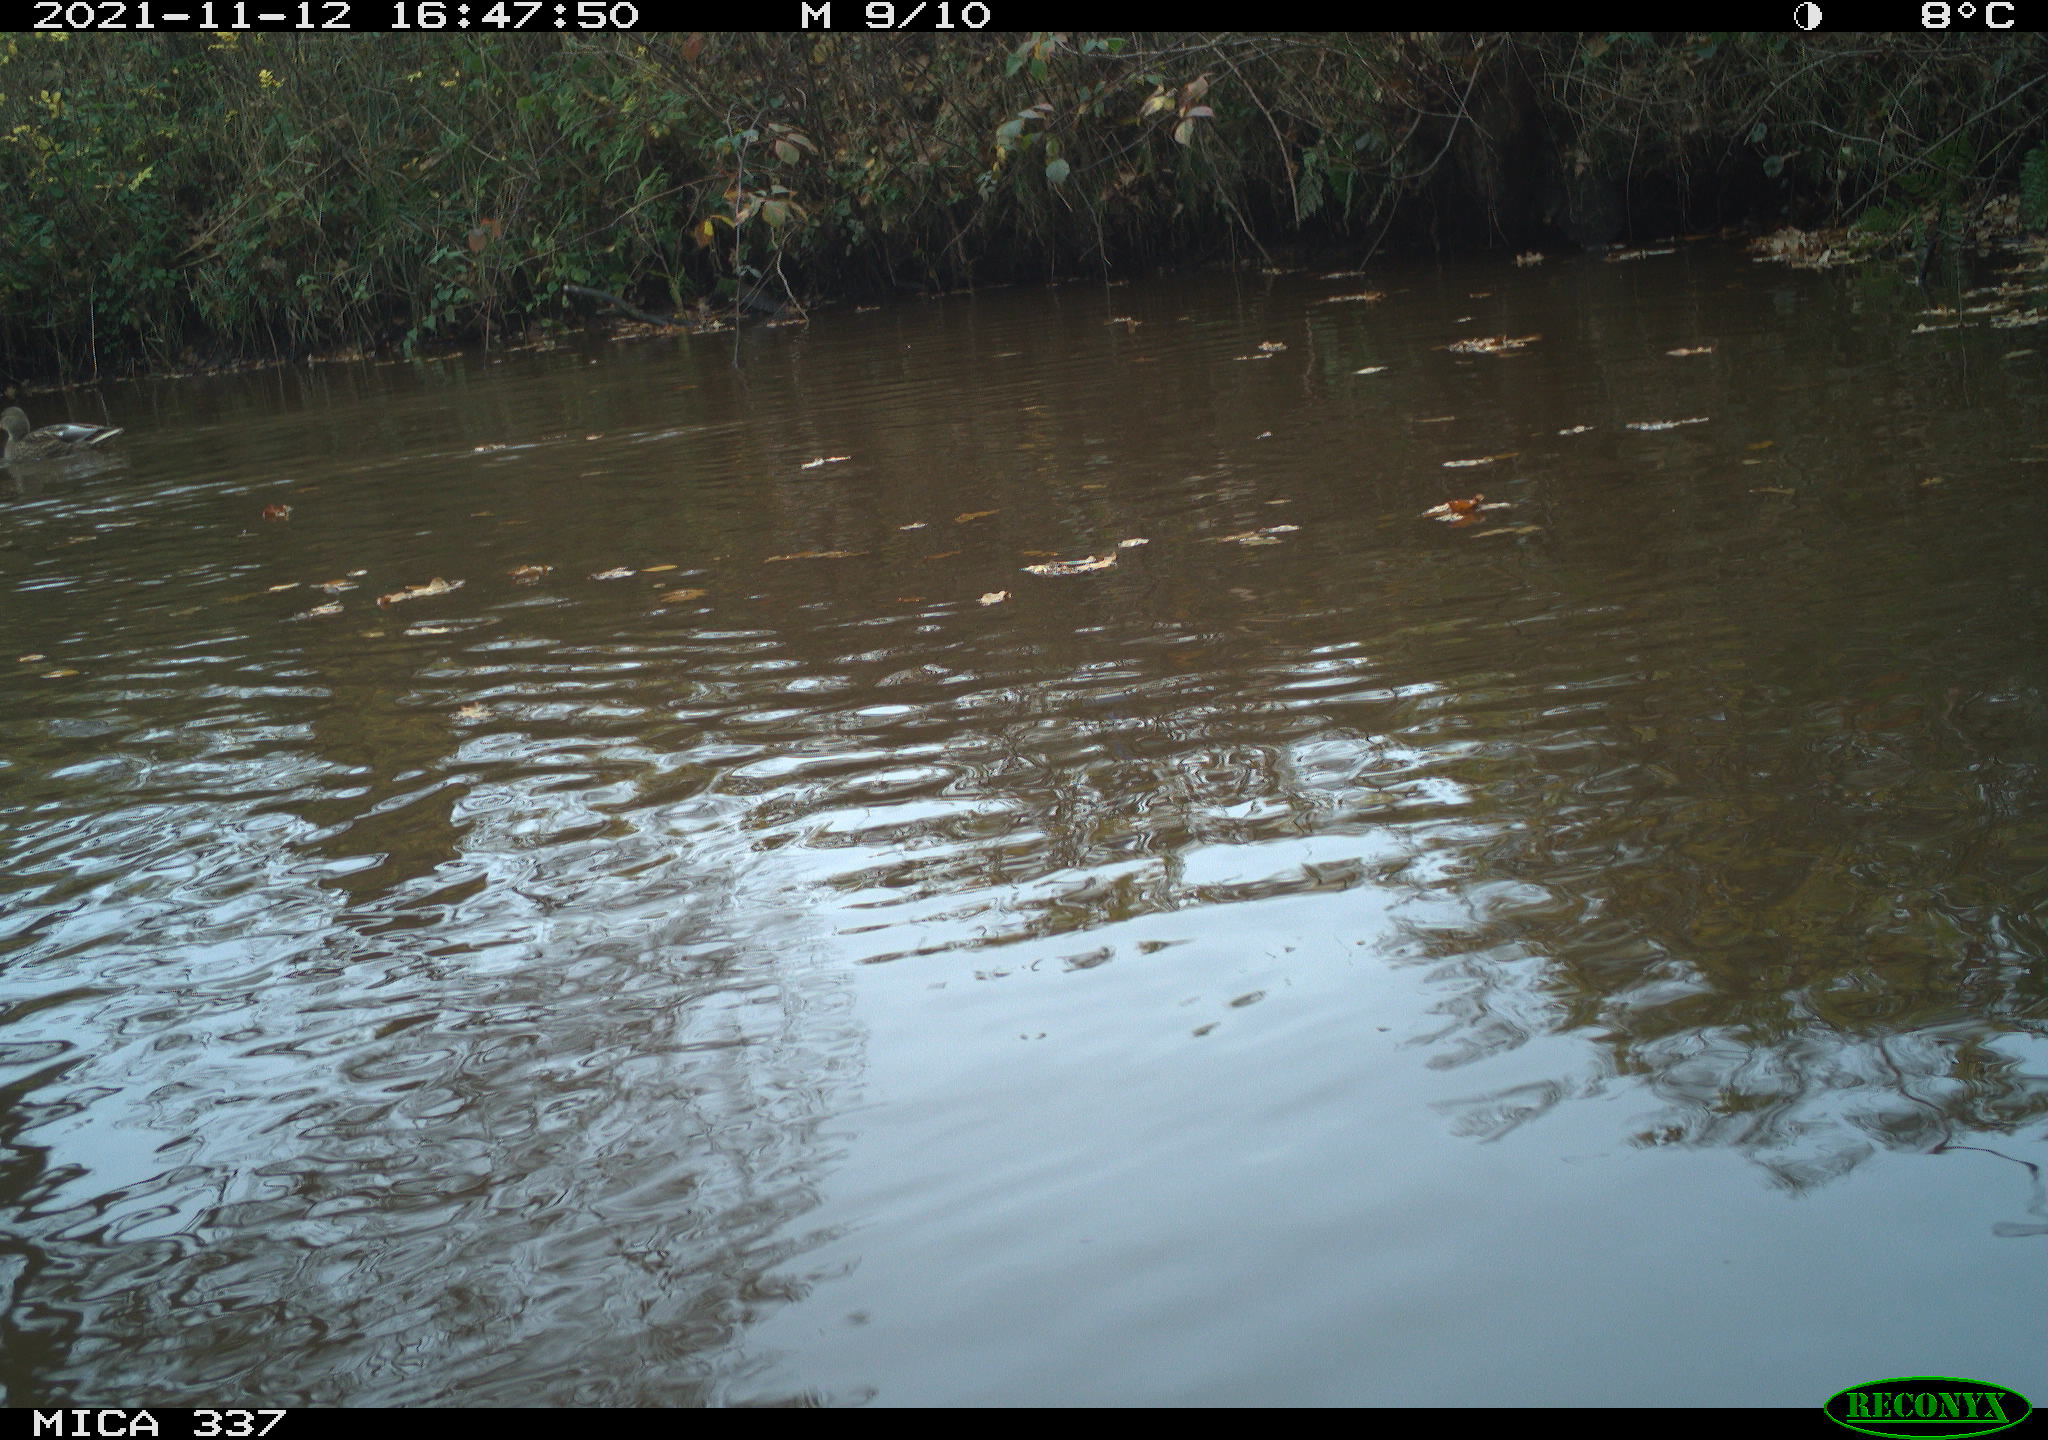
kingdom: Animalia
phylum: Chordata
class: Aves
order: Anseriformes
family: Anatidae
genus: Anas
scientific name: Anas platyrhynchos
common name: Mallard
